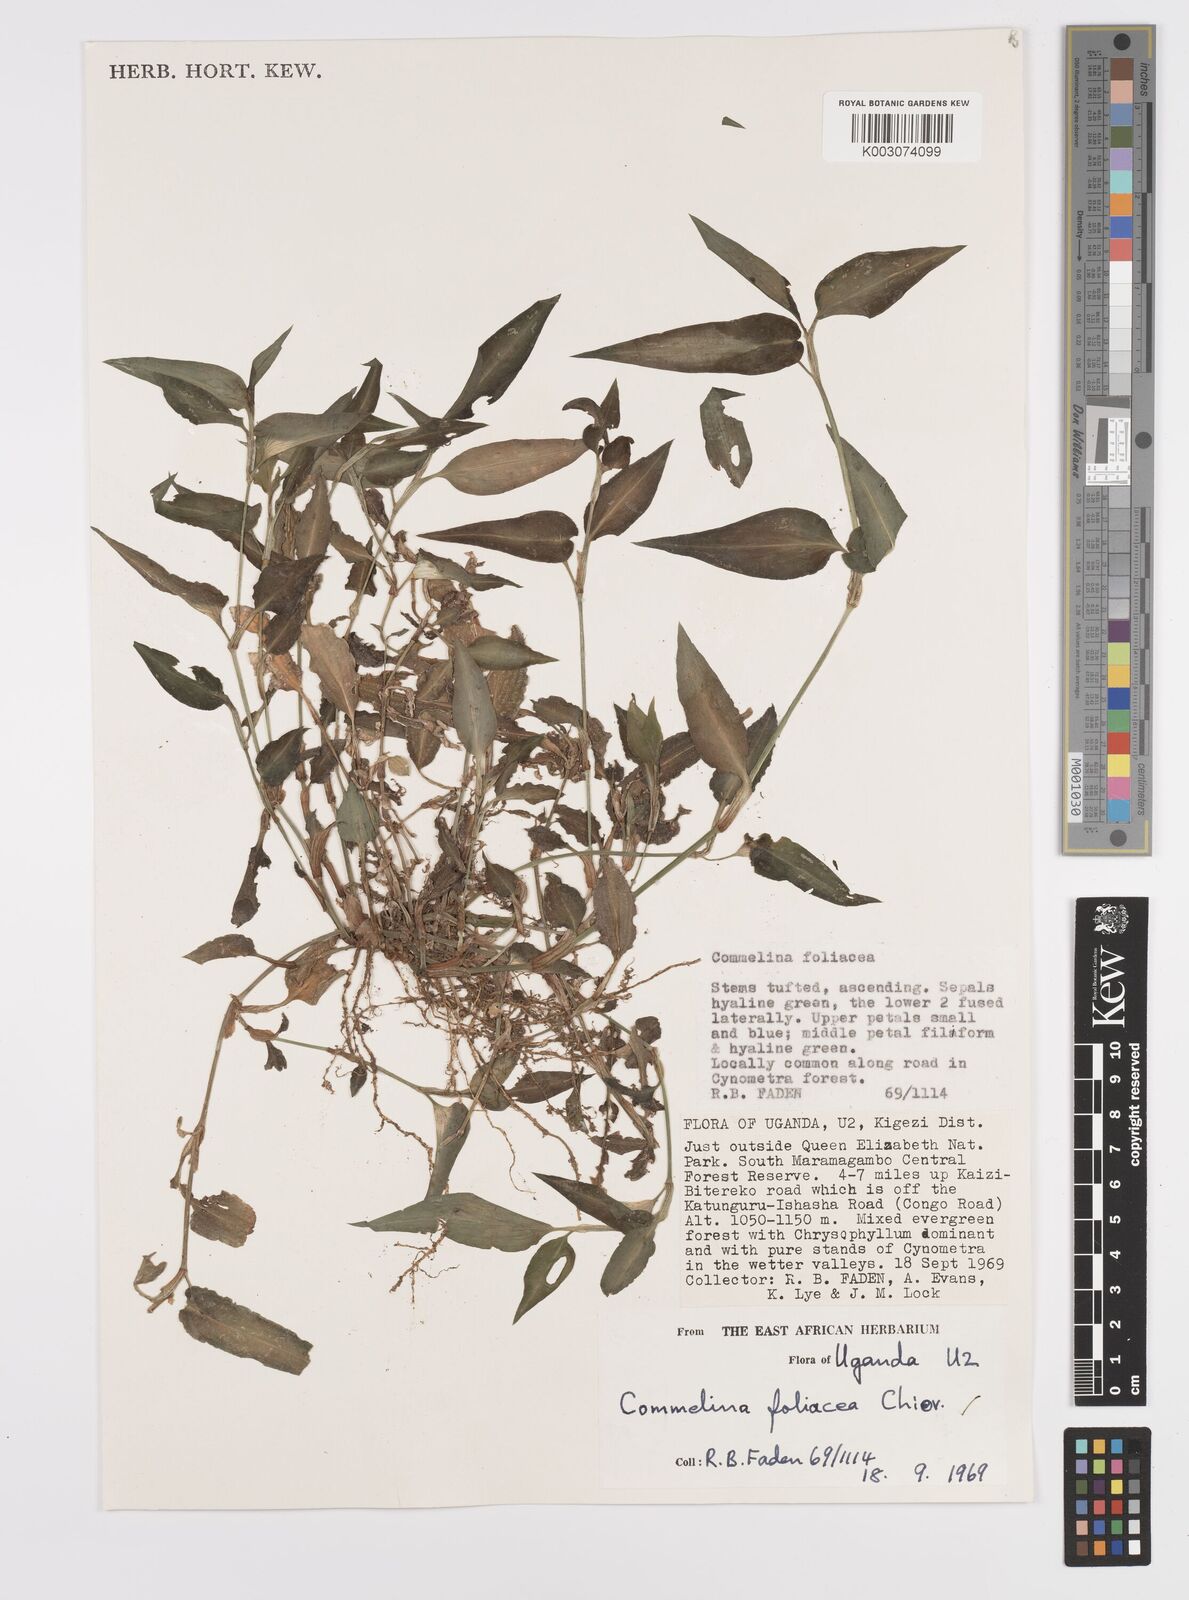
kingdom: Plantae
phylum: Tracheophyta
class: Liliopsida
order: Commelinales
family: Commelinaceae
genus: Commelina
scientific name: Commelina foliacea
